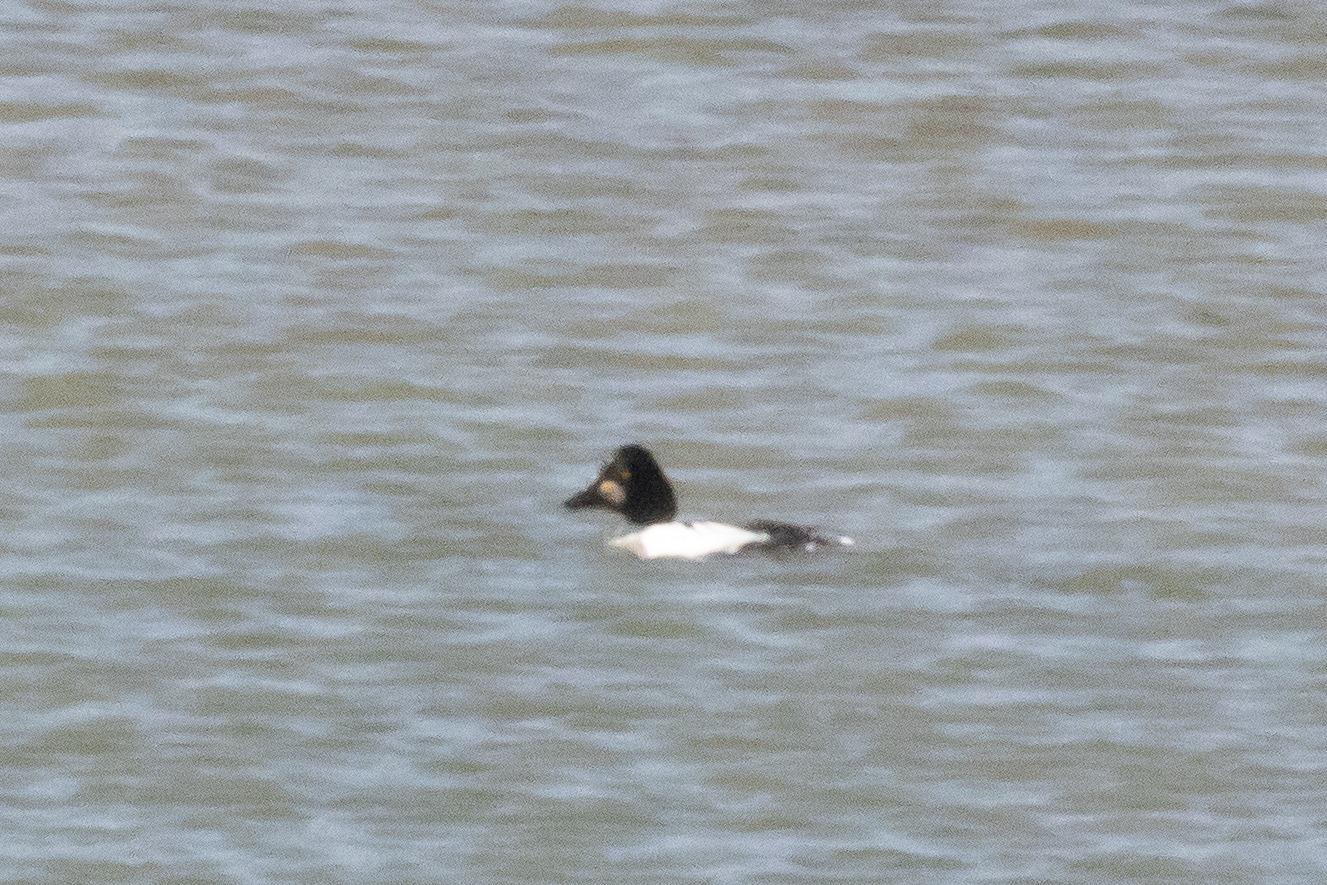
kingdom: Animalia
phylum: Chordata
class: Aves
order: Anseriformes
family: Anatidae
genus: Bucephala
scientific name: Bucephala clangula
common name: Hvinand
